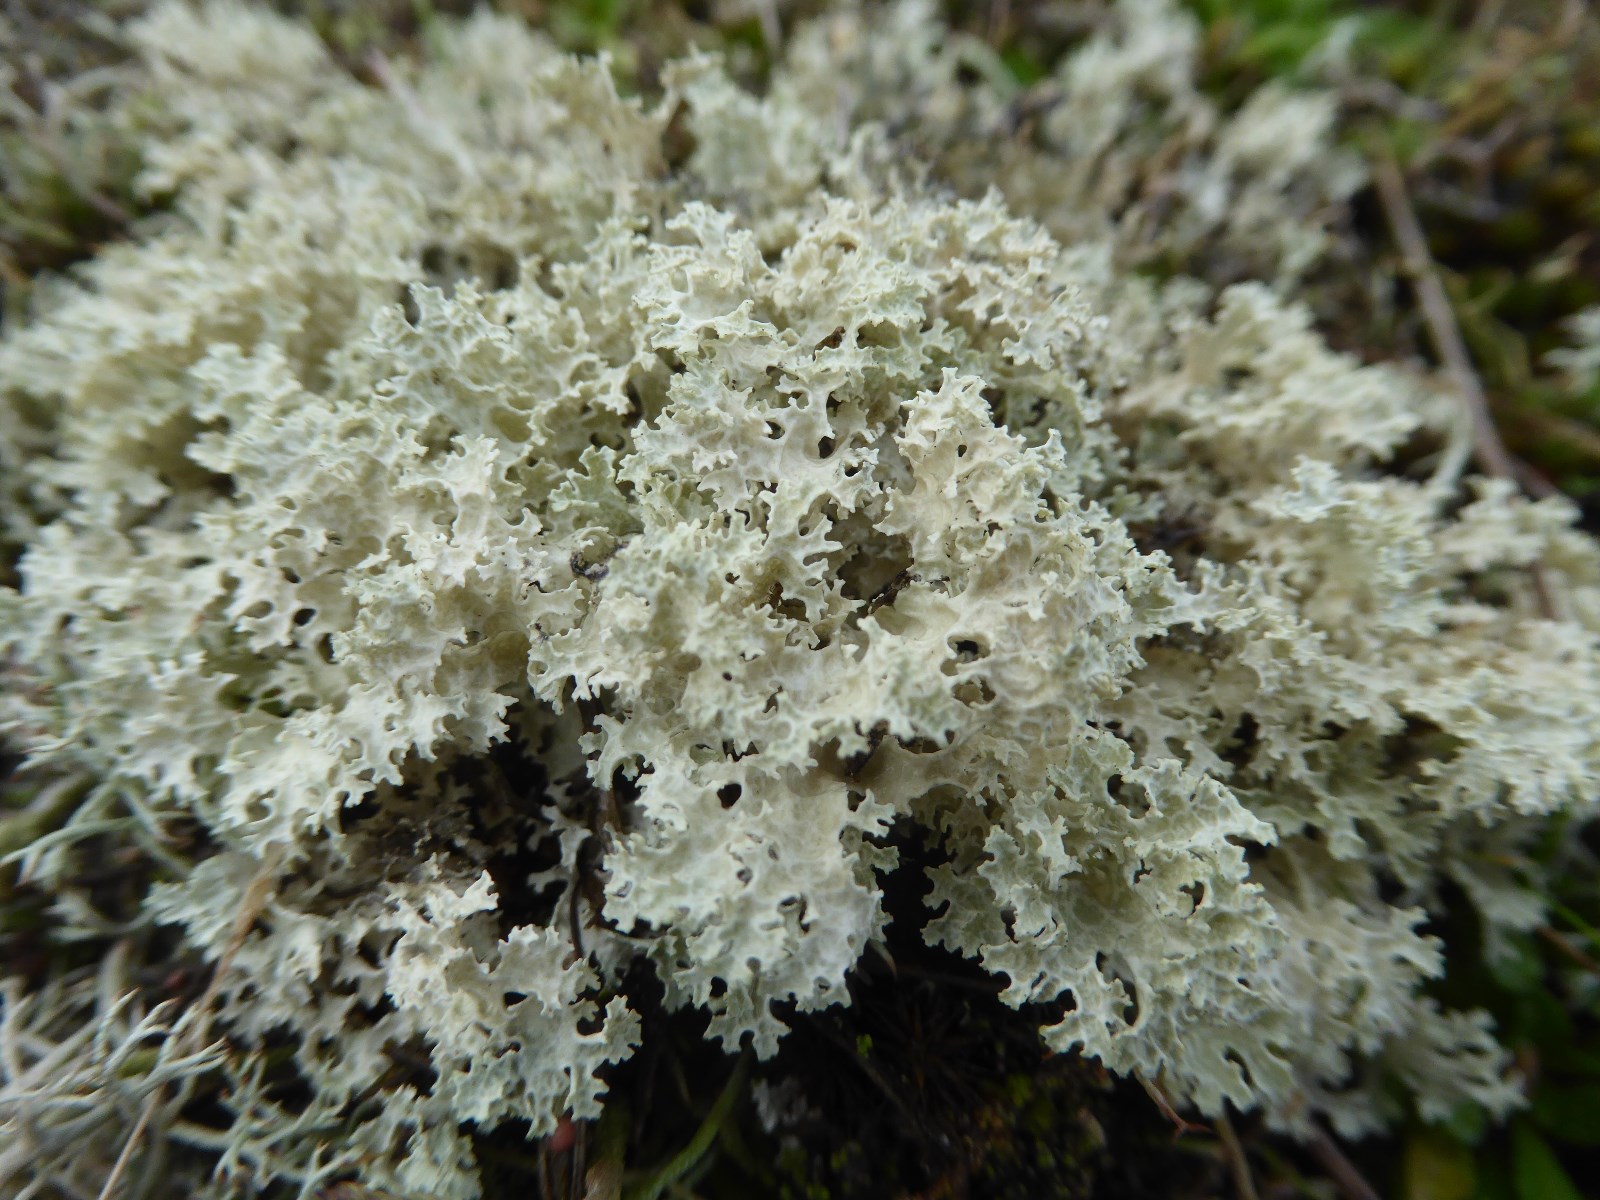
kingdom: Fungi
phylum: Ascomycota
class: Lecanoromycetes
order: Lecanorales
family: Parmeliaceae
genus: Nephromopsis
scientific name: Nephromopsis nivalis
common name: sne-kruslav
